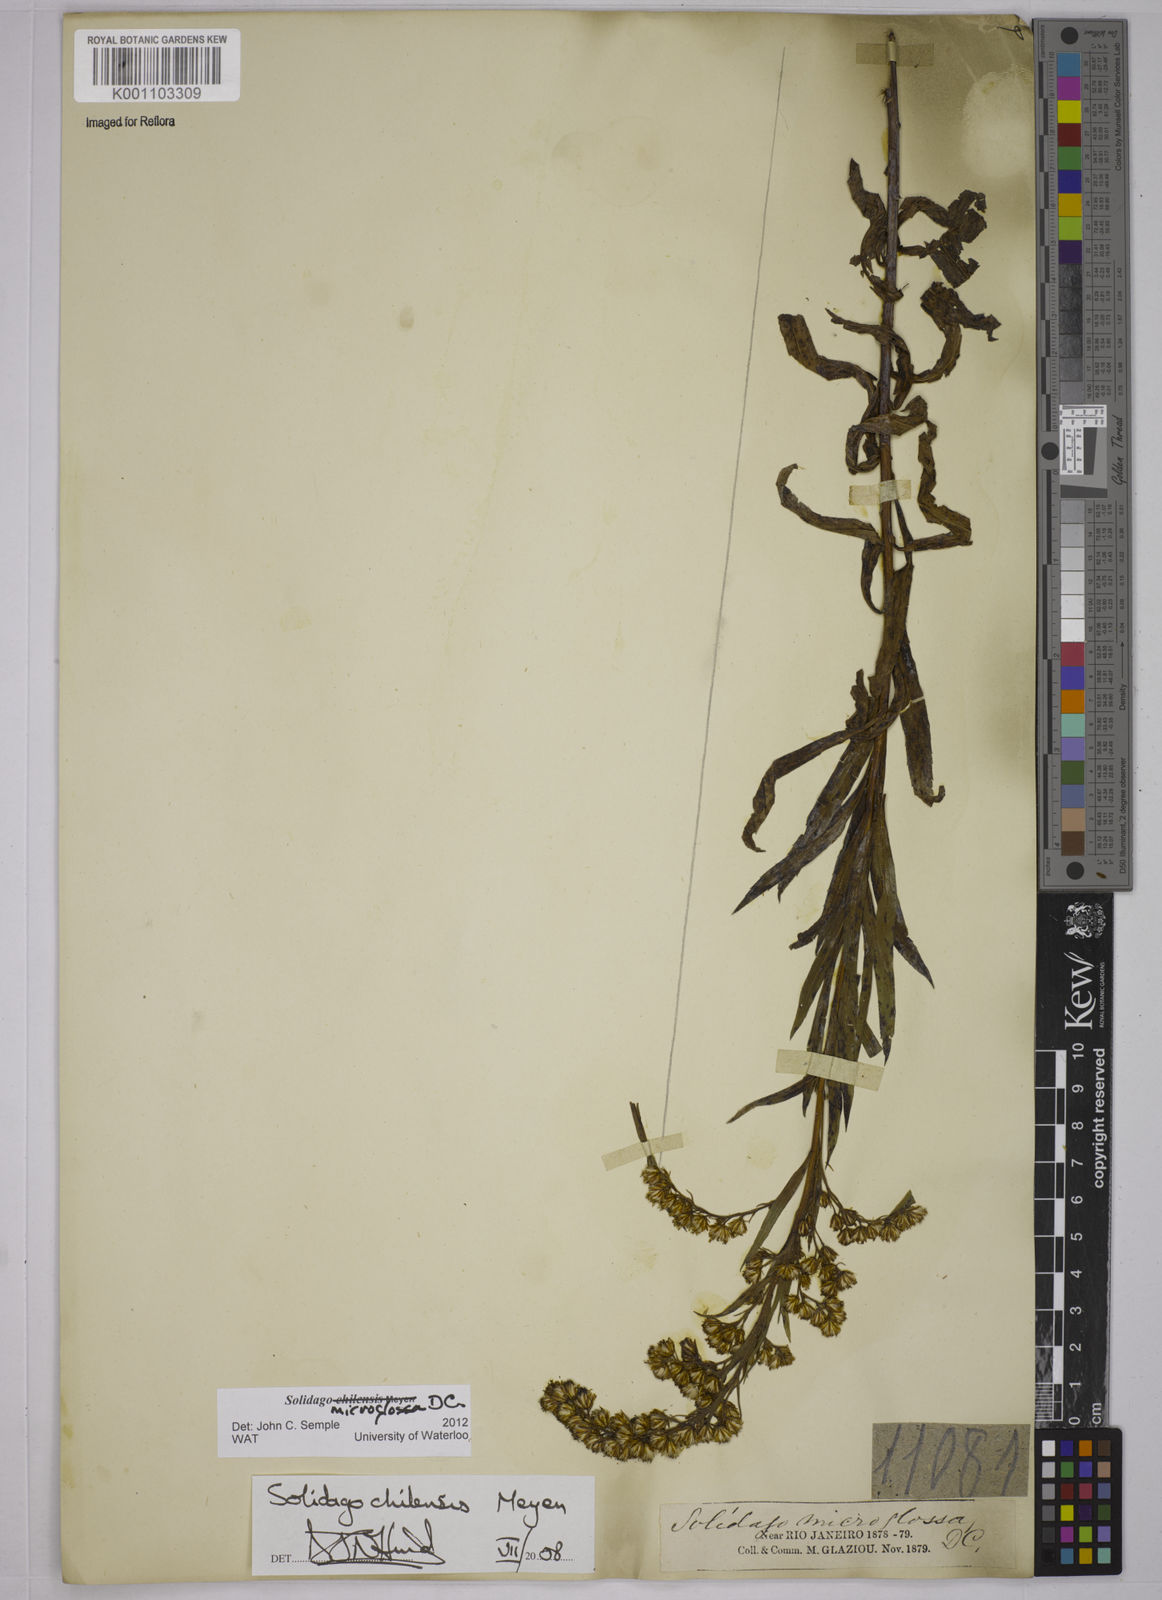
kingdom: Plantae
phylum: Tracheophyta
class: Magnoliopsida
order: Asterales
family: Asteraceae
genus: Solidago
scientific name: Solidago chilensis
